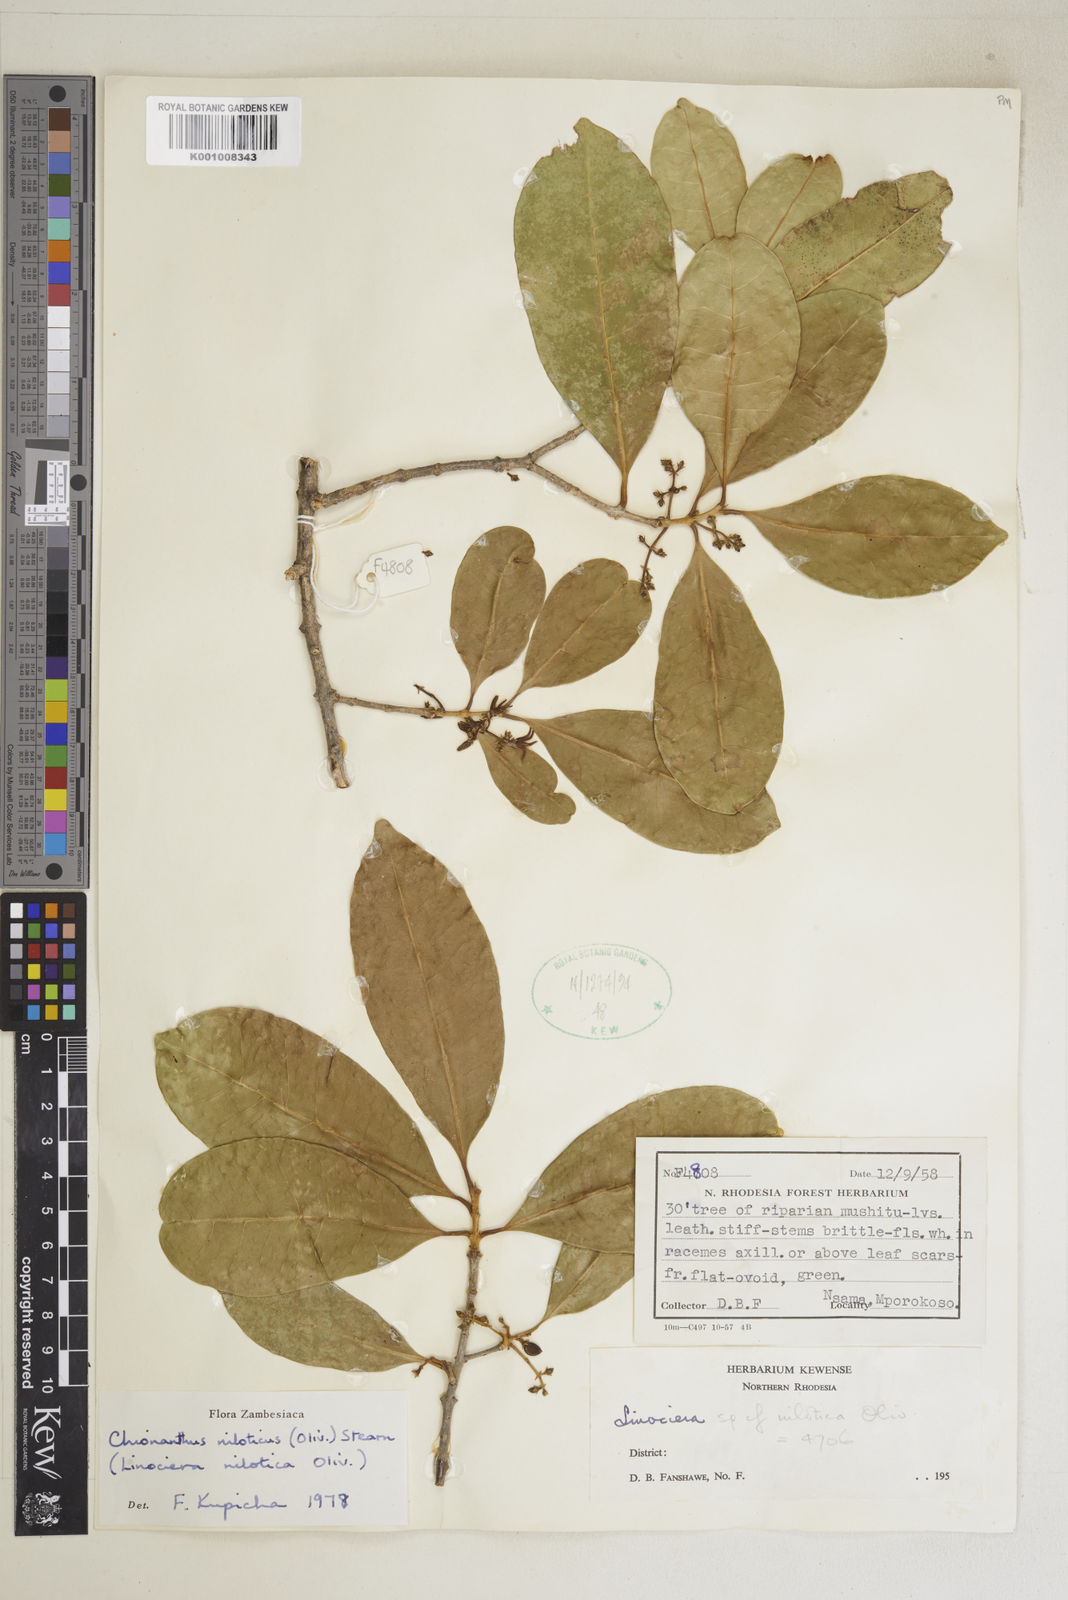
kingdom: Plantae
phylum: Tracheophyta
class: Magnoliopsida
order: Lamiales
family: Oleaceae
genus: Noronhia
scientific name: Noronhia nilotica
